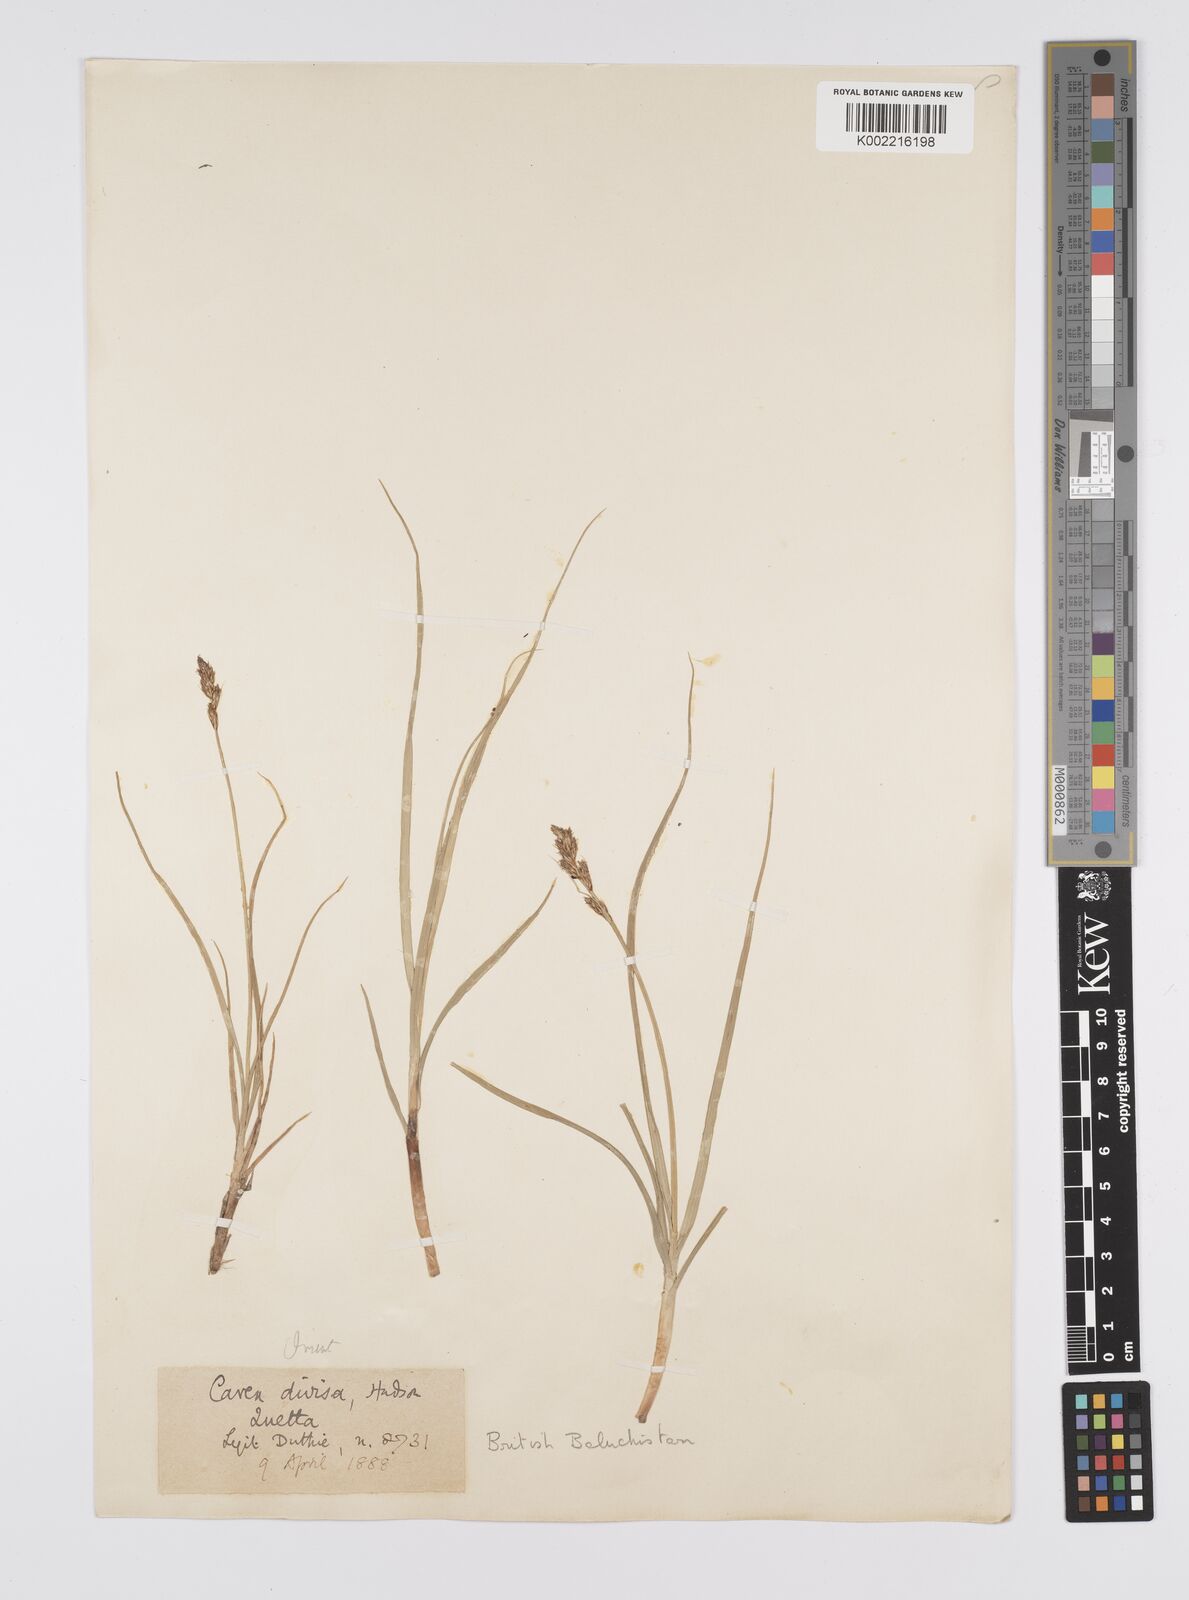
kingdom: Plantae
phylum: Tracheophyta
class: Liliopsida
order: Poales
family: Cyperaceae
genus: Carex
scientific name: Carex divisa
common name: Divided sedge
